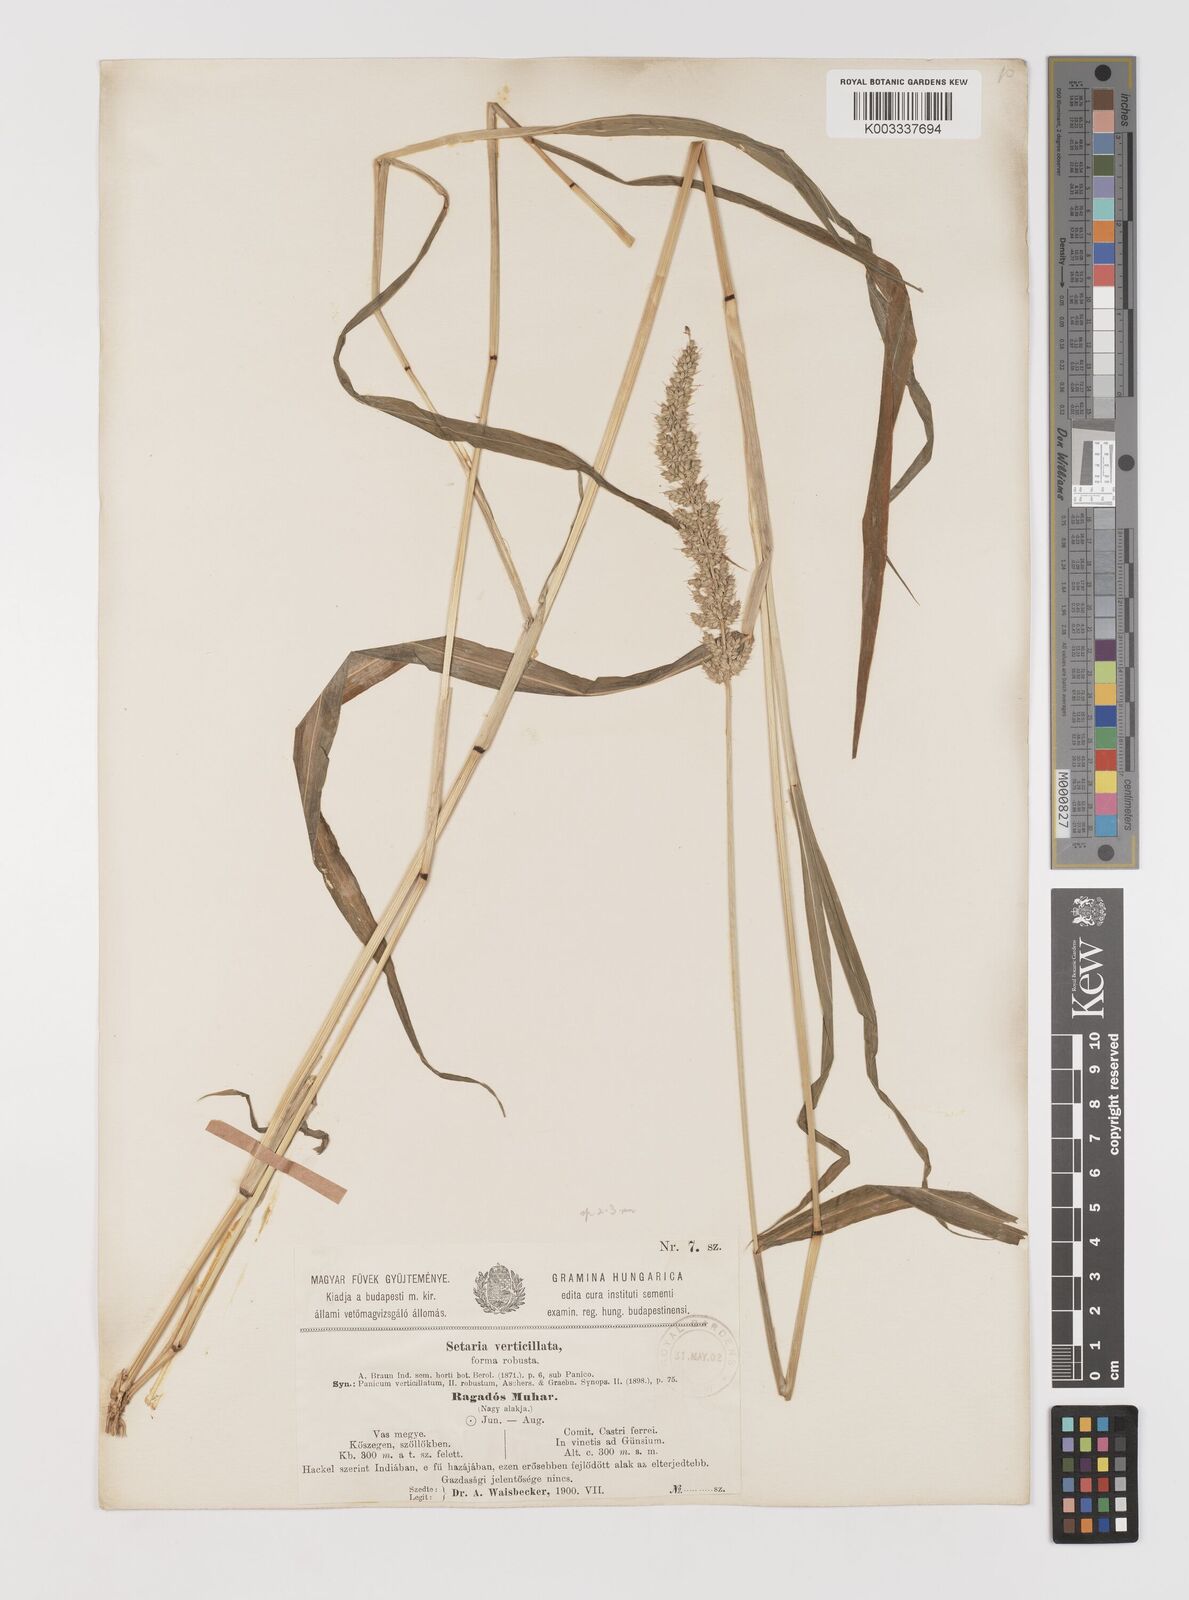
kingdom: Plantae
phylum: Tracheophyta
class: Liliopsida
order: Poales
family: Poaceae
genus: Setaria
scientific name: Setaria verticillata
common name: Hooked bristlegrass
